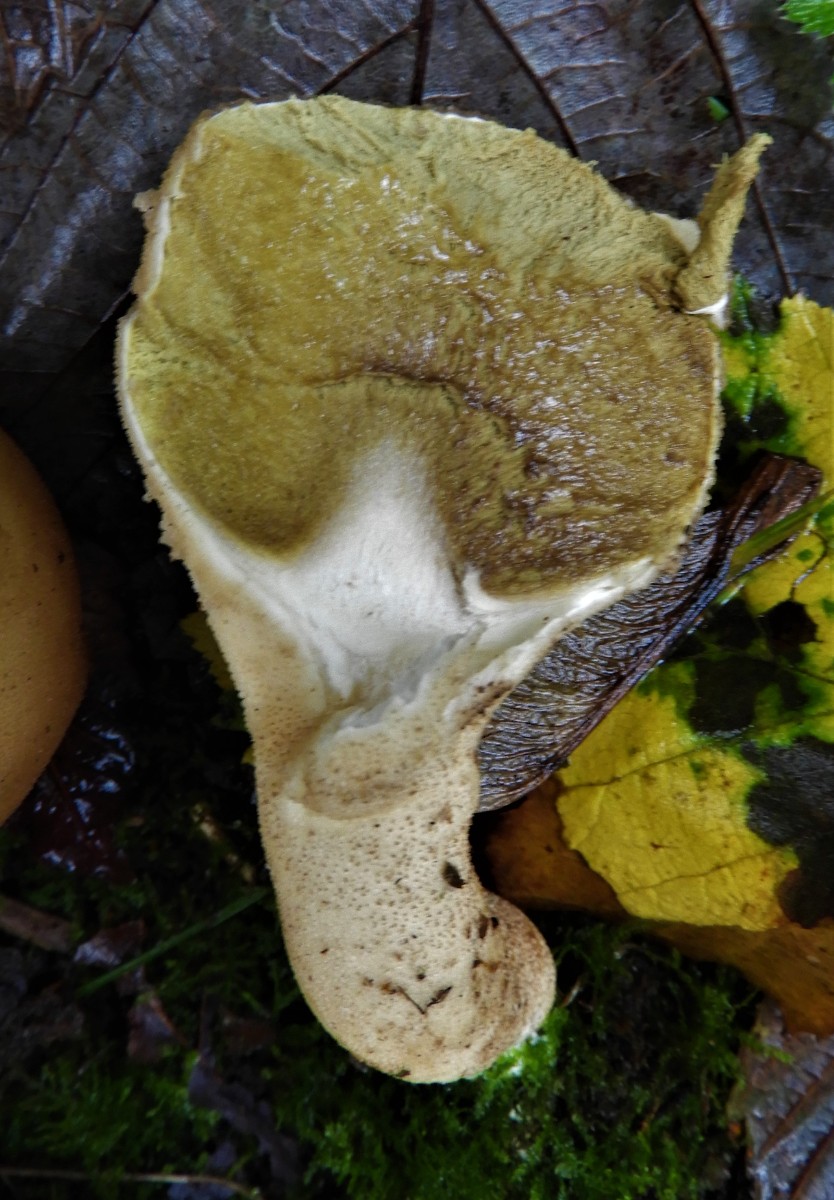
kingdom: Fungi
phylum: Basidiomycota
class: Agaricomycetes
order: Agaricales
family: Lycoperdaceae
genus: Apioperdon
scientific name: Apioperdon pyriforme
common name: pære-støvbold
